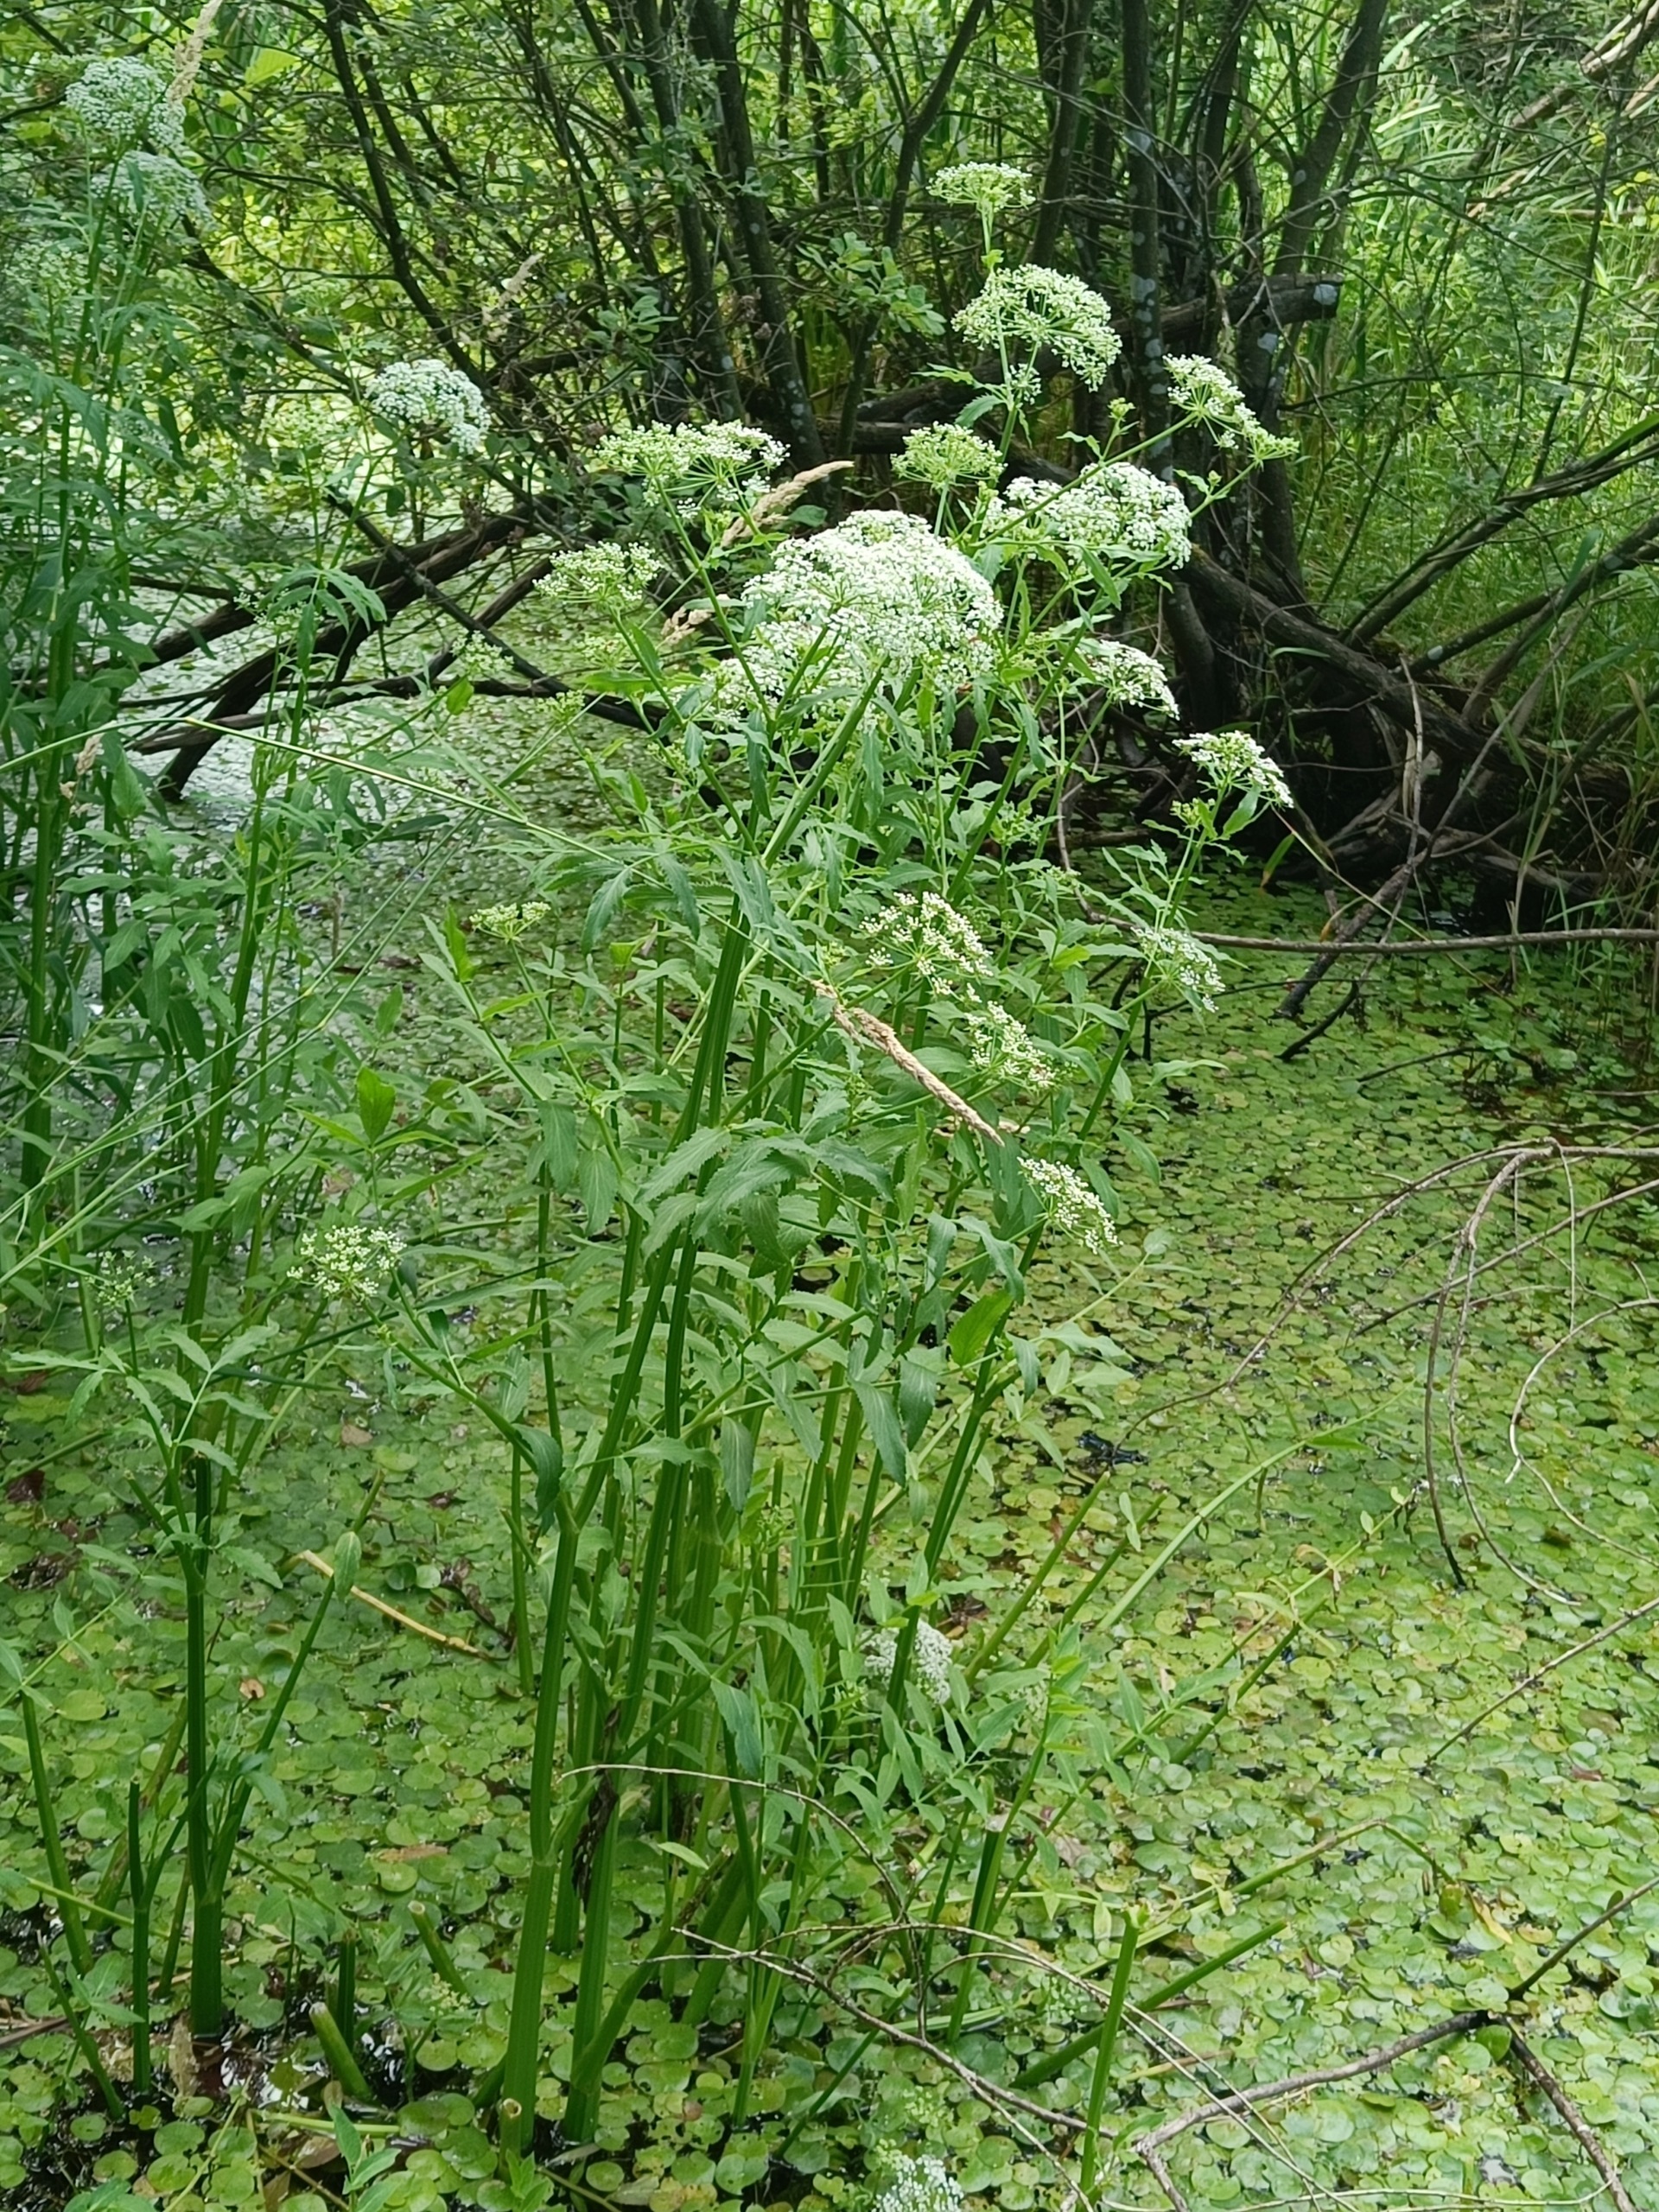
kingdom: Plantae
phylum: Tracheophyta
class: Magnoliopsida
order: Apiales
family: Apiaceae
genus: Sium
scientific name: Sium latifolium
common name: Bredbladet mærke
